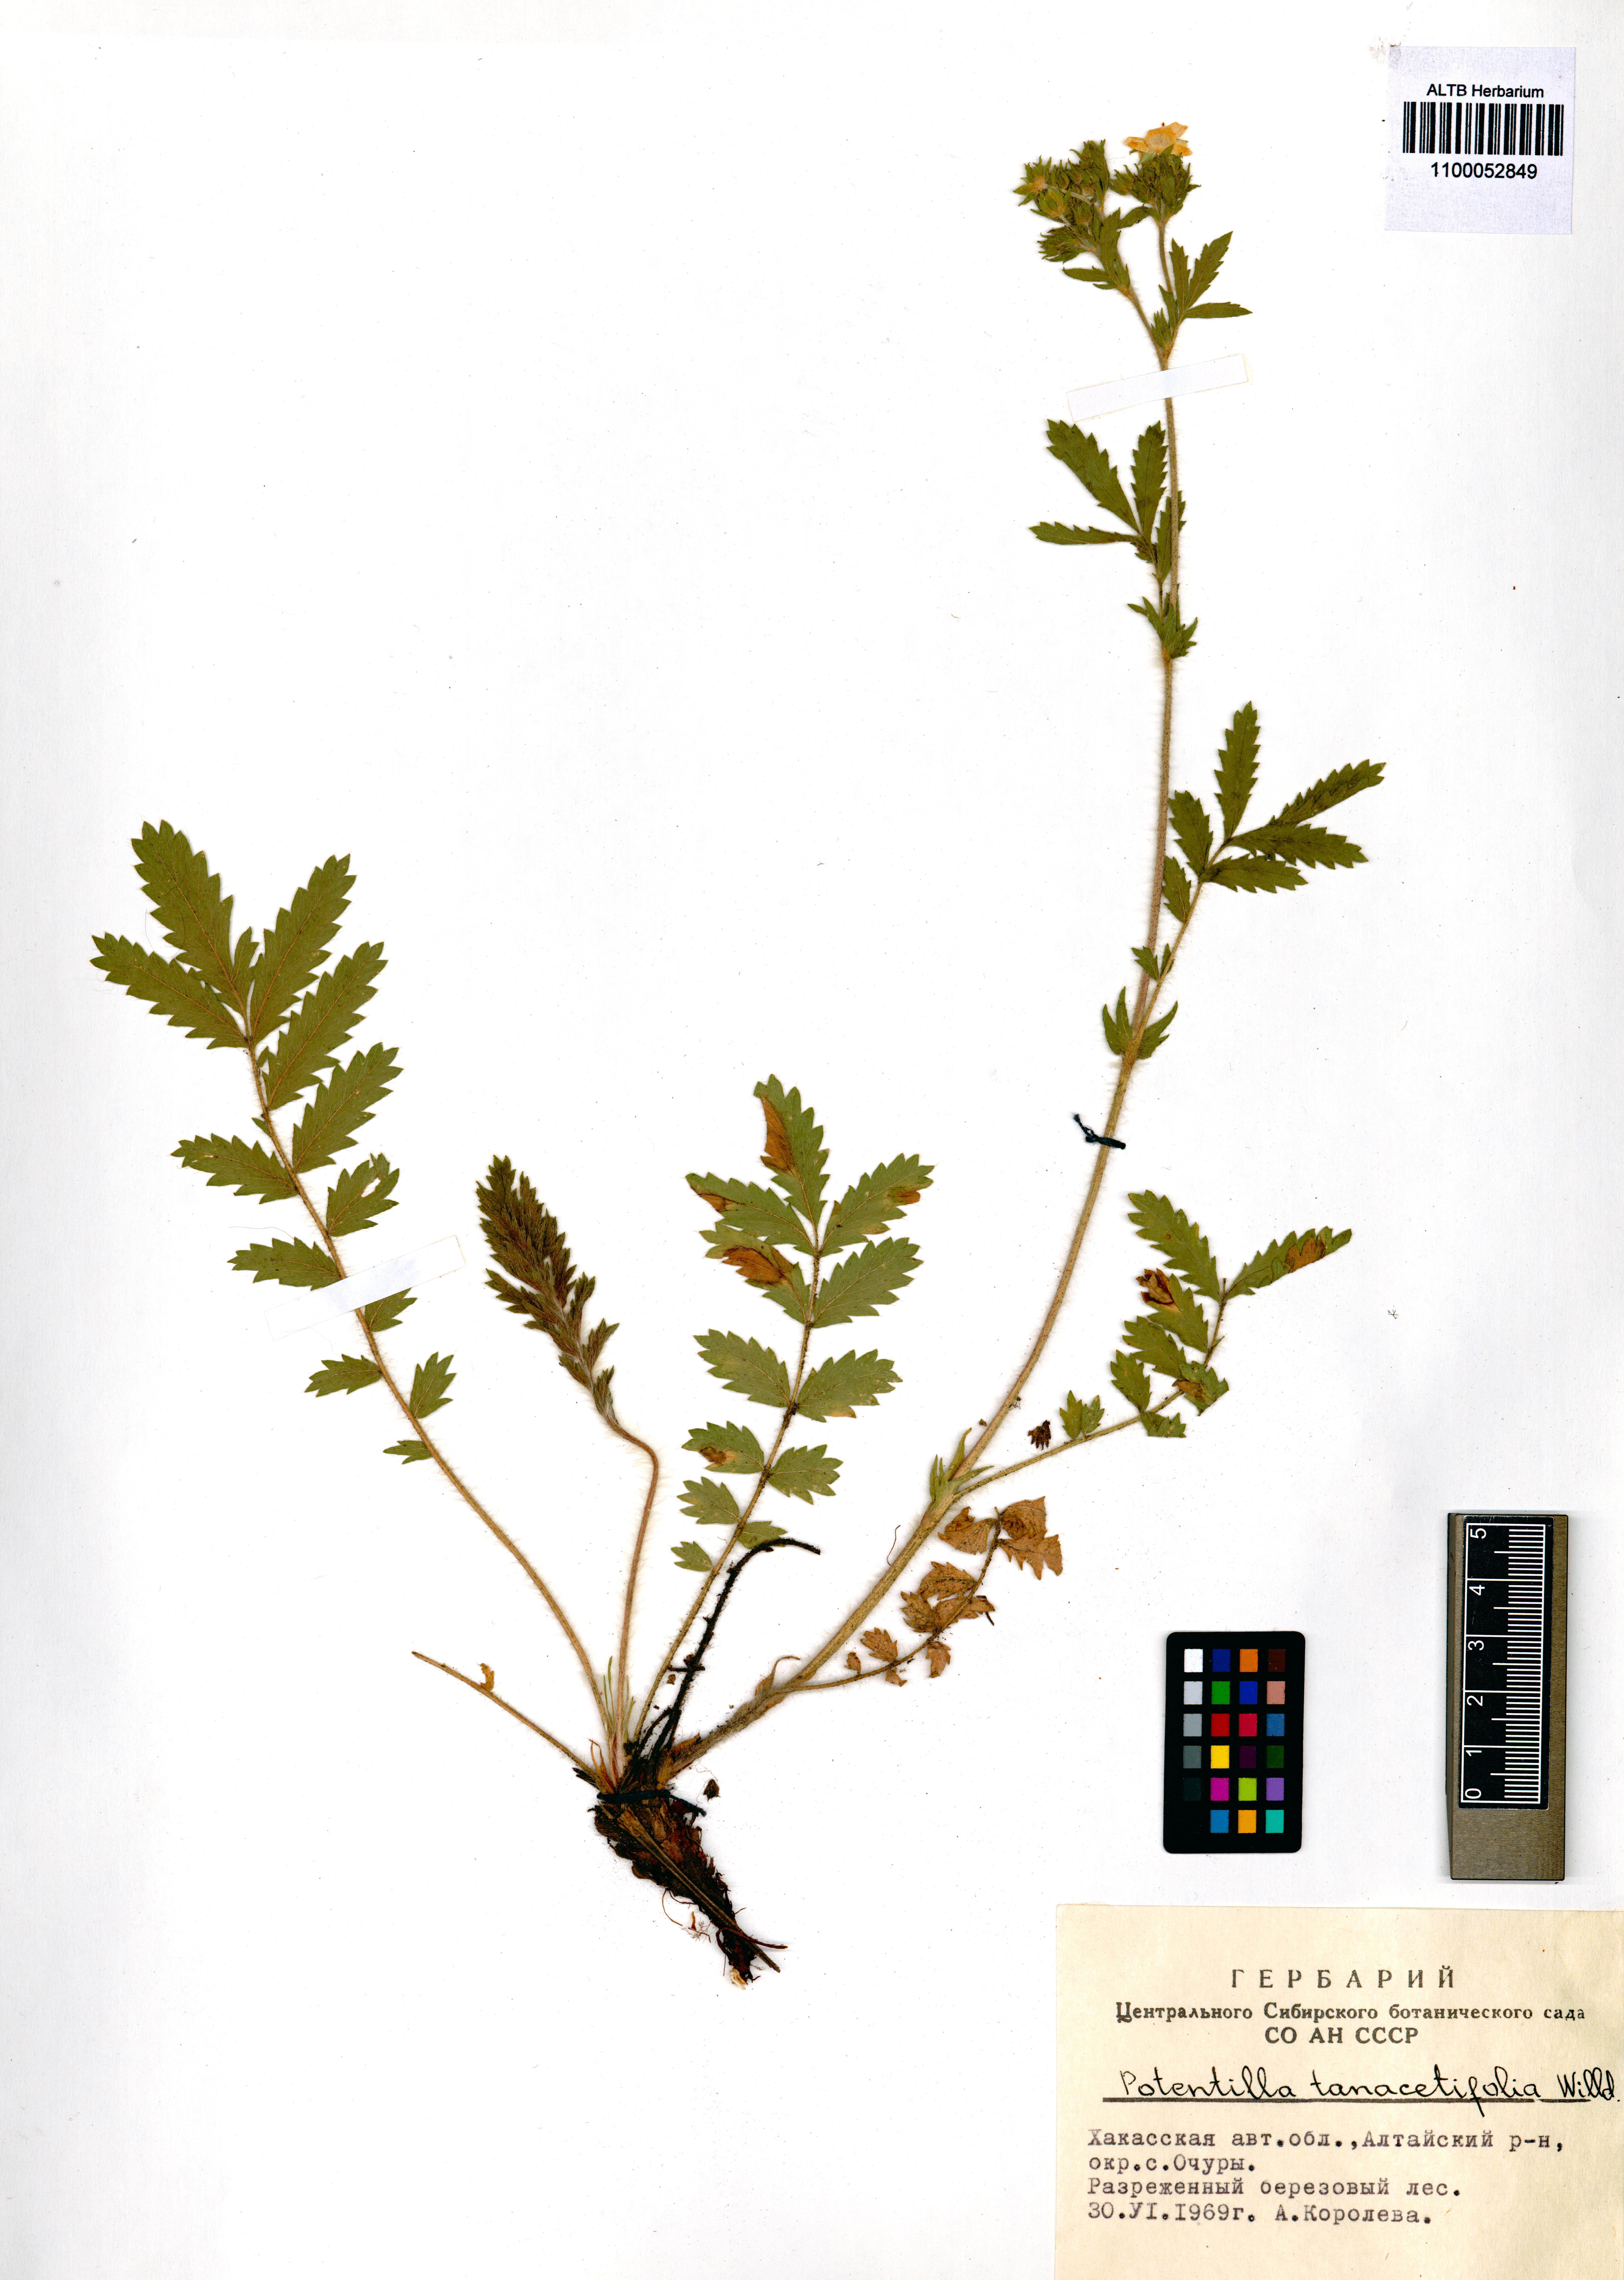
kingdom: Plantae
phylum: Tracheophyta
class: Magnoliopsida
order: Rosales
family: Rosaceae
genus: Potentilla
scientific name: Potentilla tanacetifolia
